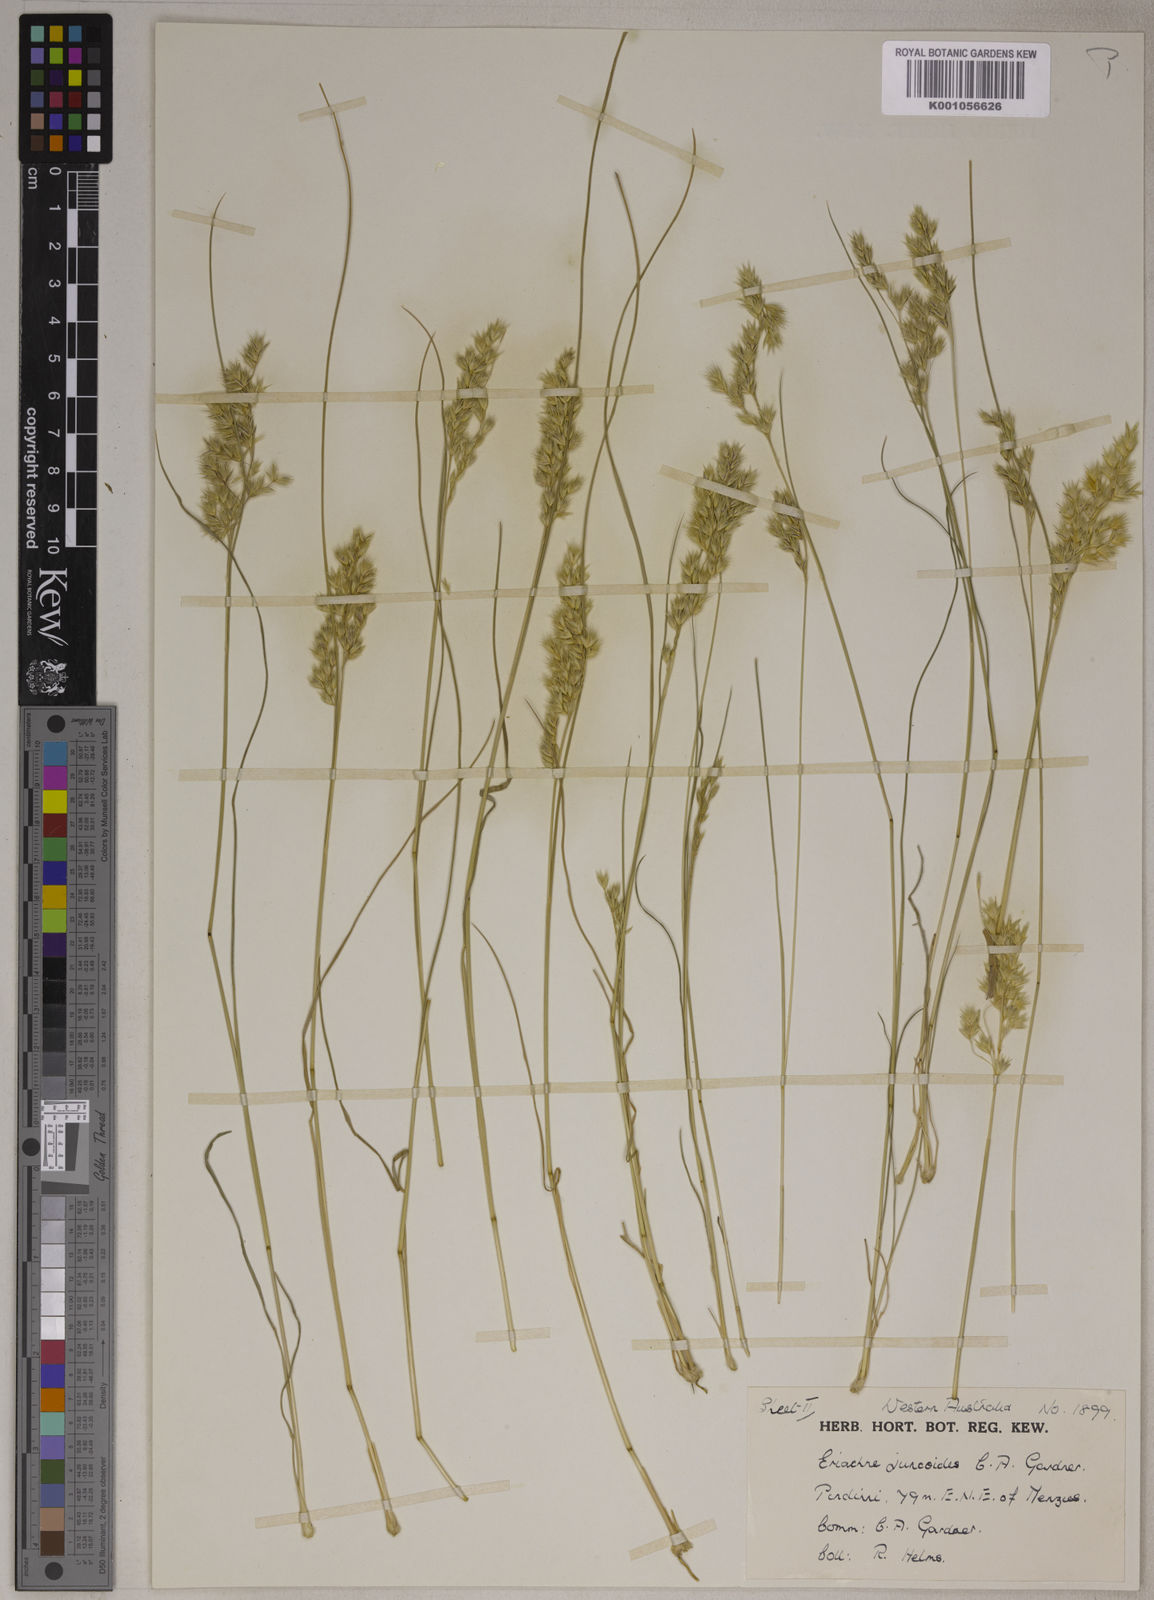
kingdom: Plantae
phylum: Tracheophyta
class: Liliopsida
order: Poales
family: Poaceae
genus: Eriachne
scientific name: Eriachne flaccida
